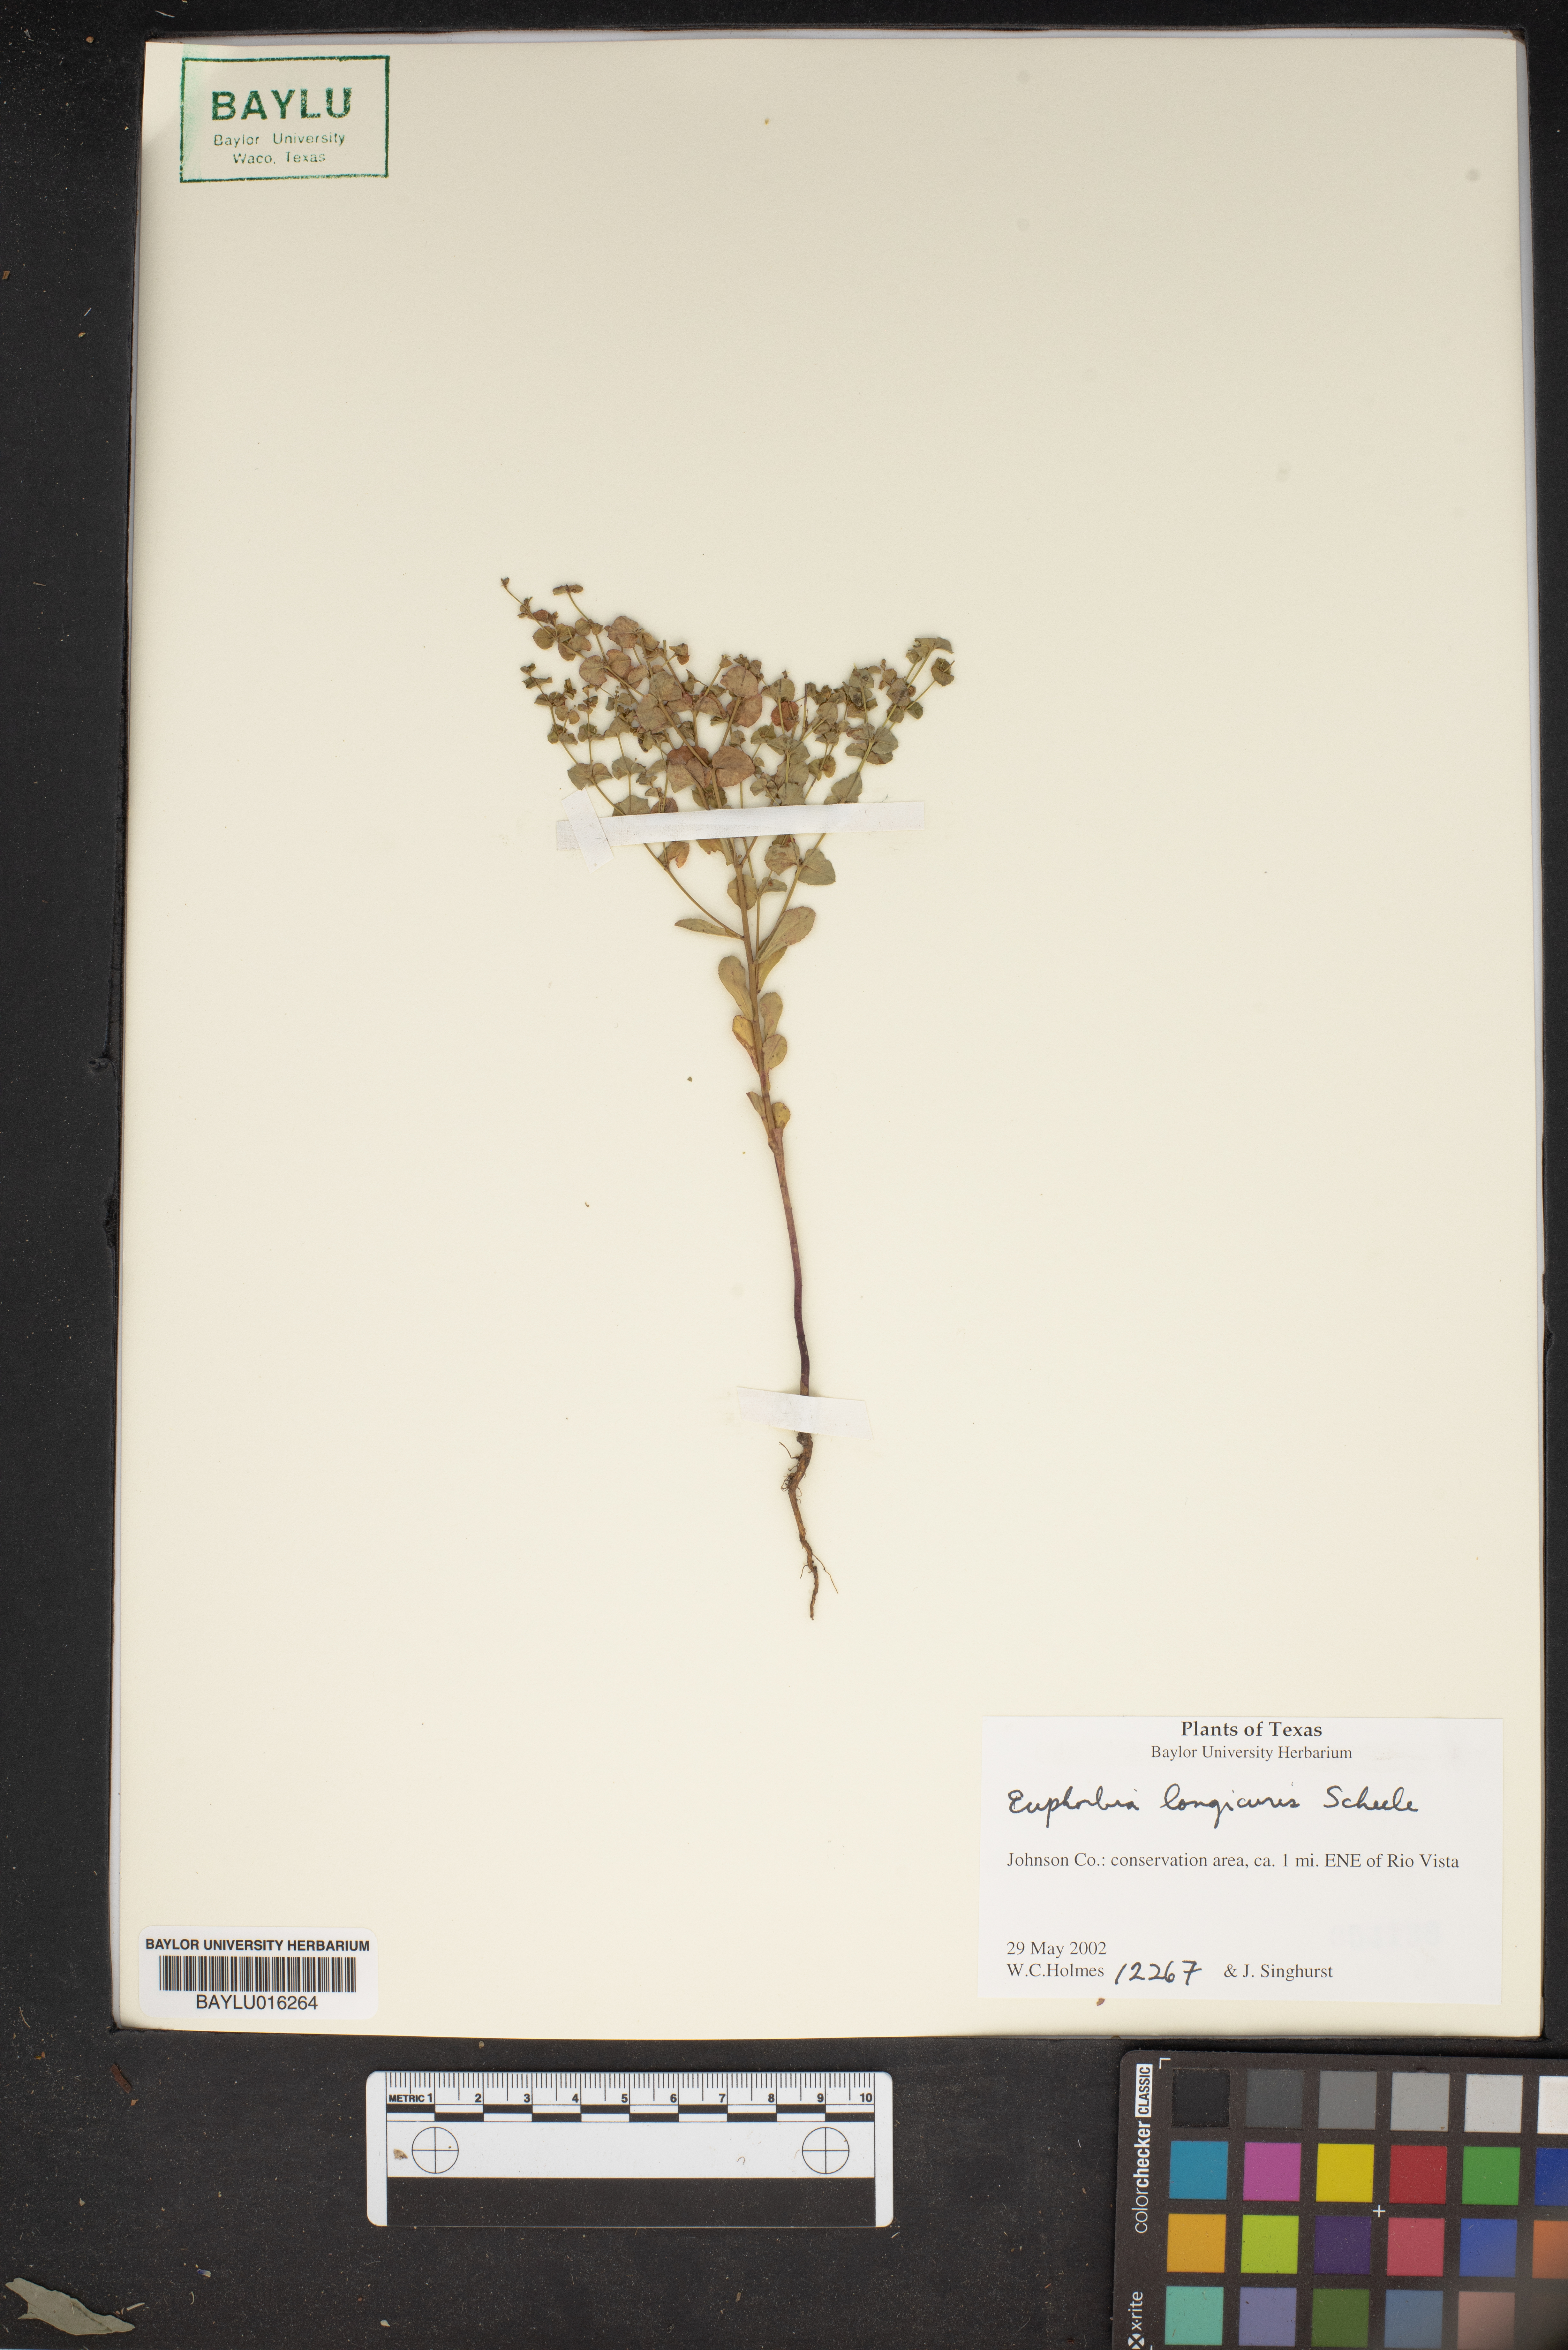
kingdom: Plantae
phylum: Tracheophyta
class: Magnoliopsida
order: Malpighiales
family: Euphorbiaceae
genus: Euphorbia
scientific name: Euphorbia longicruris
